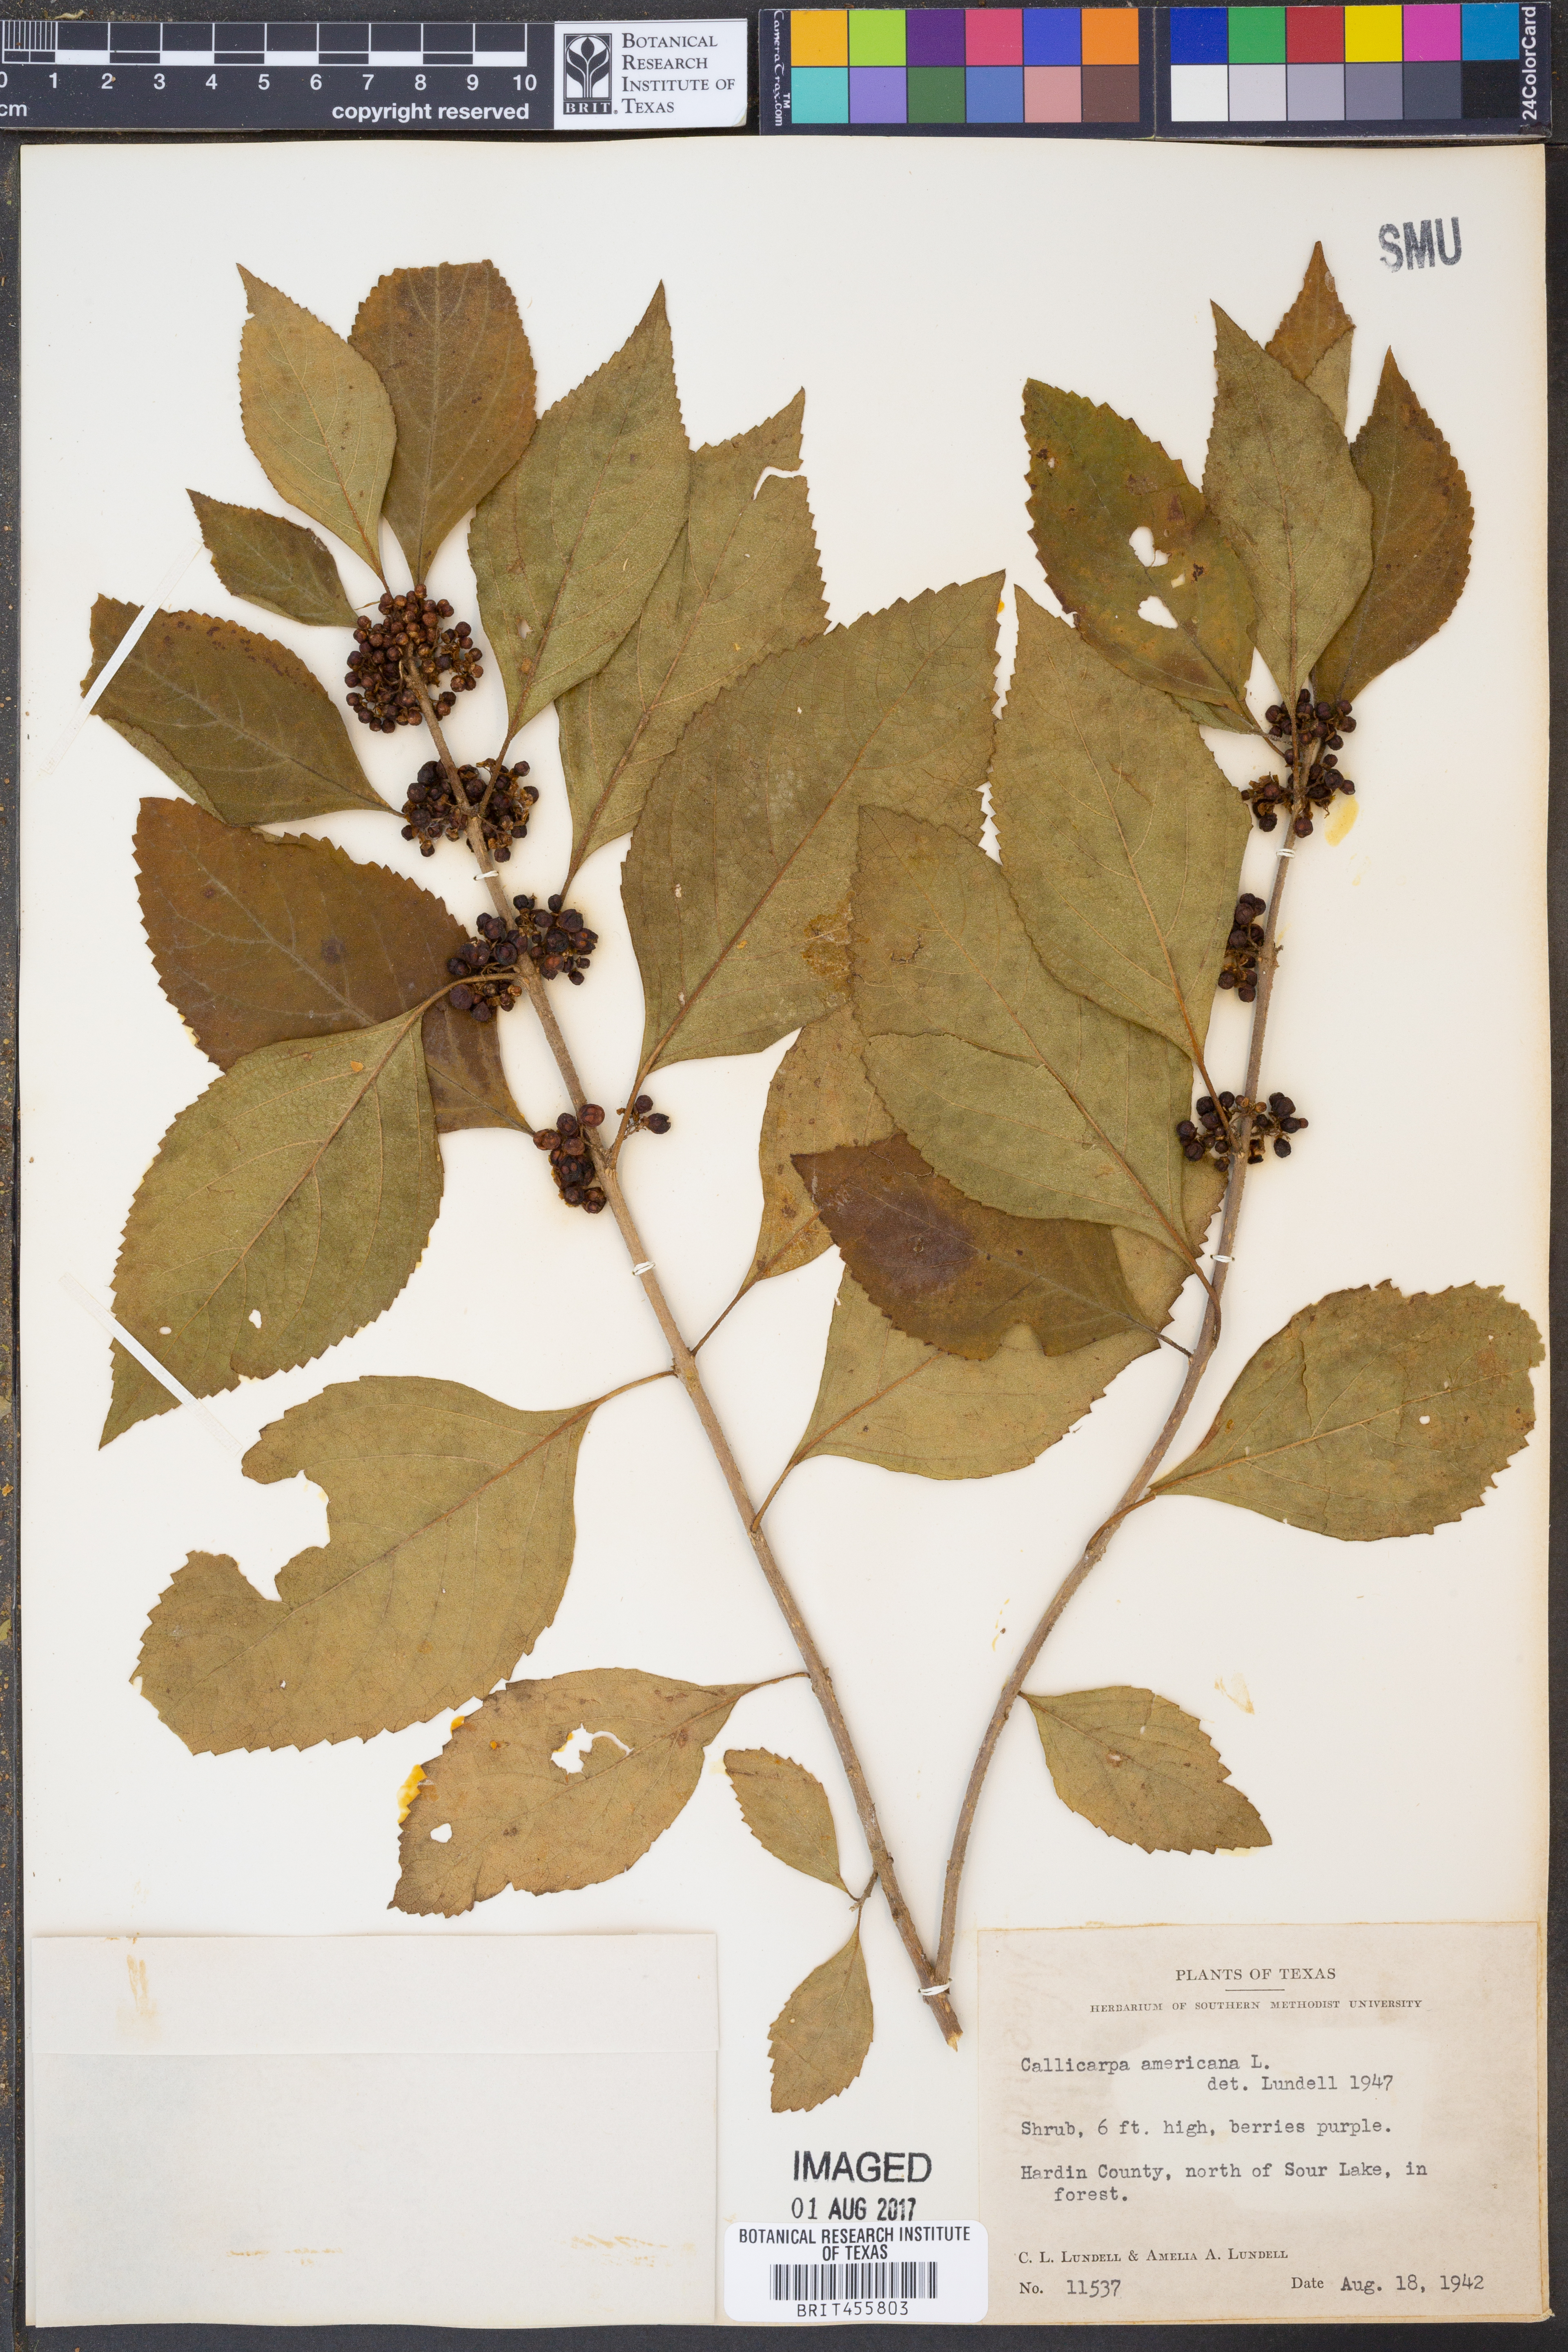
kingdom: Plantae
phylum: Tracheophyta
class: Magnoliopsida
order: Lamiales
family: Lamiaceae
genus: Callicarpa
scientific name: Callicarpa americana
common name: American beautyberry
